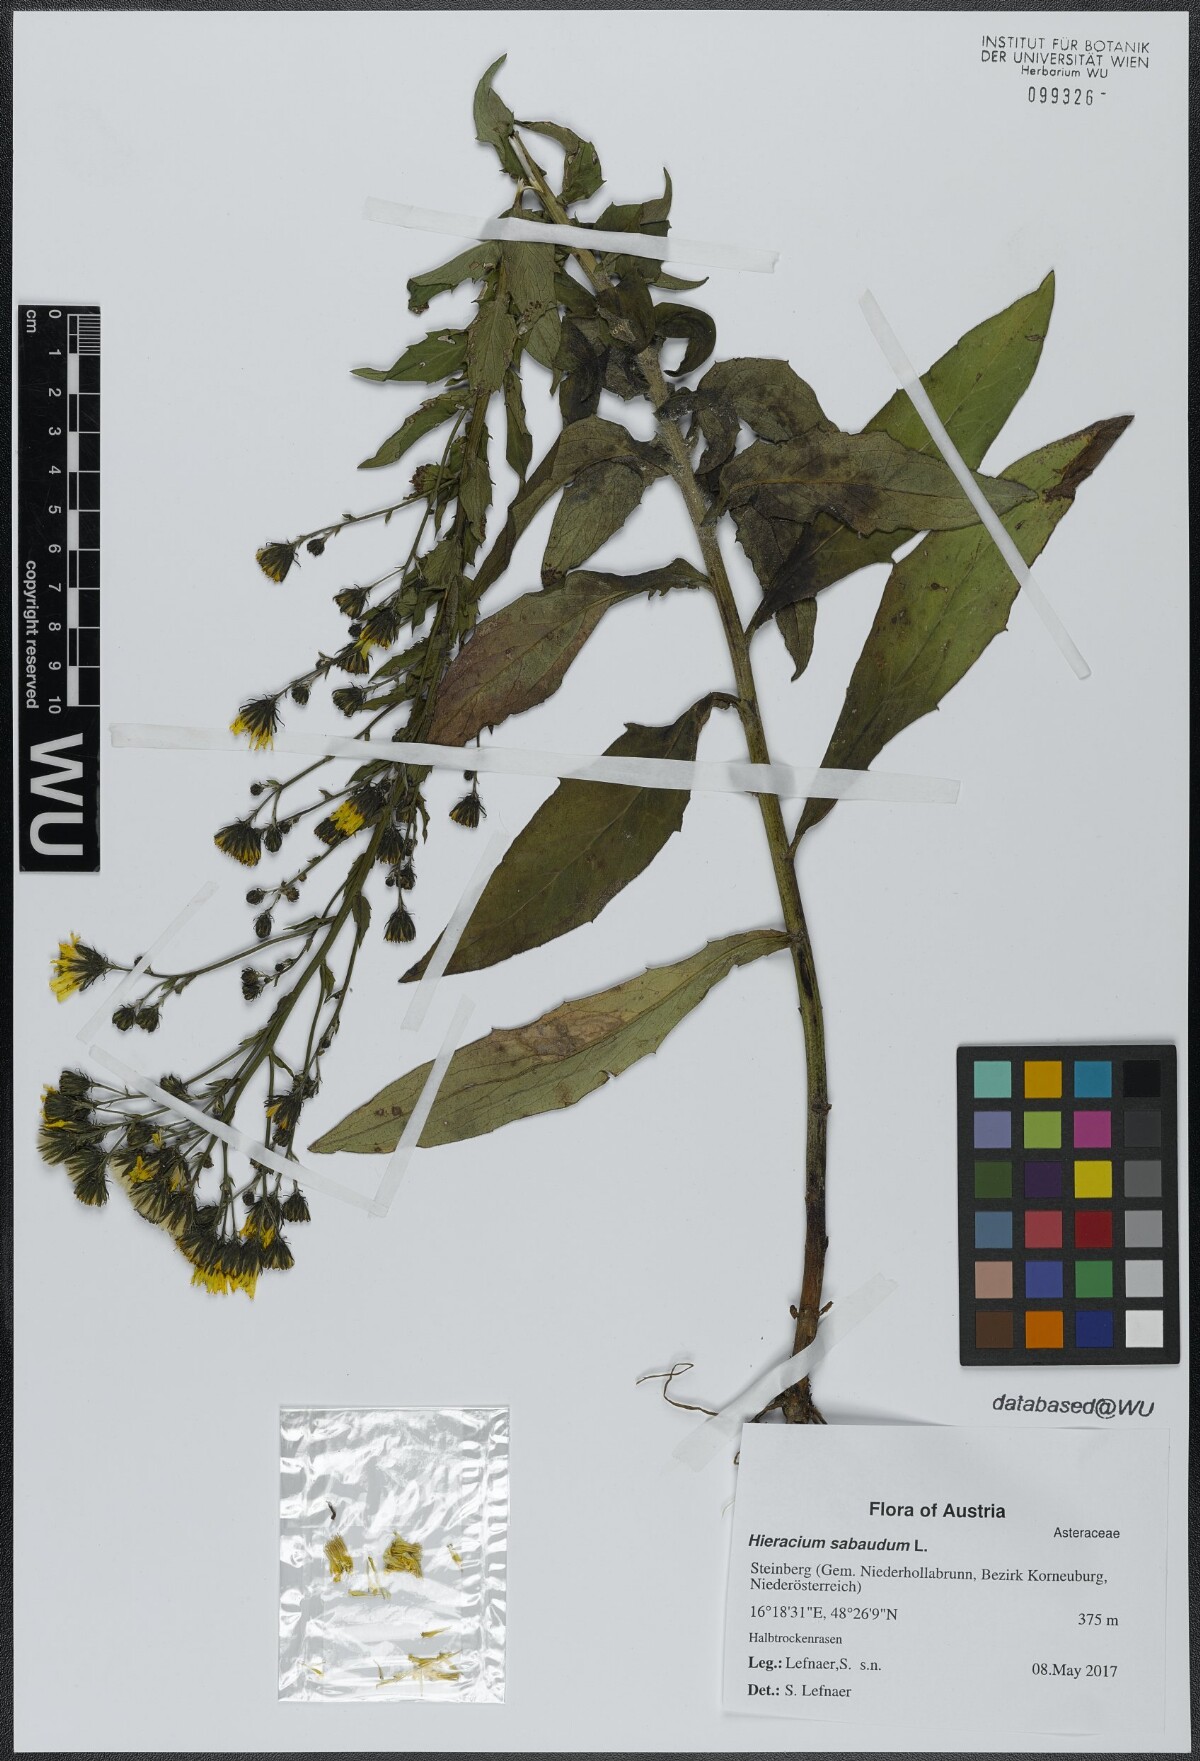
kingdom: Plantae
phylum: Tracheophyta
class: Magnoliopsida
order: Asterales
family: Asteraceae
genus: Hieracium
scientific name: Hieracium sabaudum
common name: New england hawkweed
